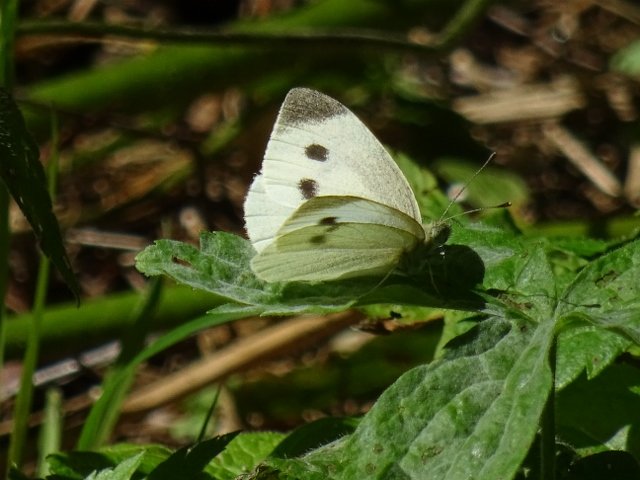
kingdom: Animalia
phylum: Arthropoda
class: Insecta
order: Lepidoptera
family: Pieridae
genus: Pieris
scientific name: Pieris rapae
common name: Cabbage White
